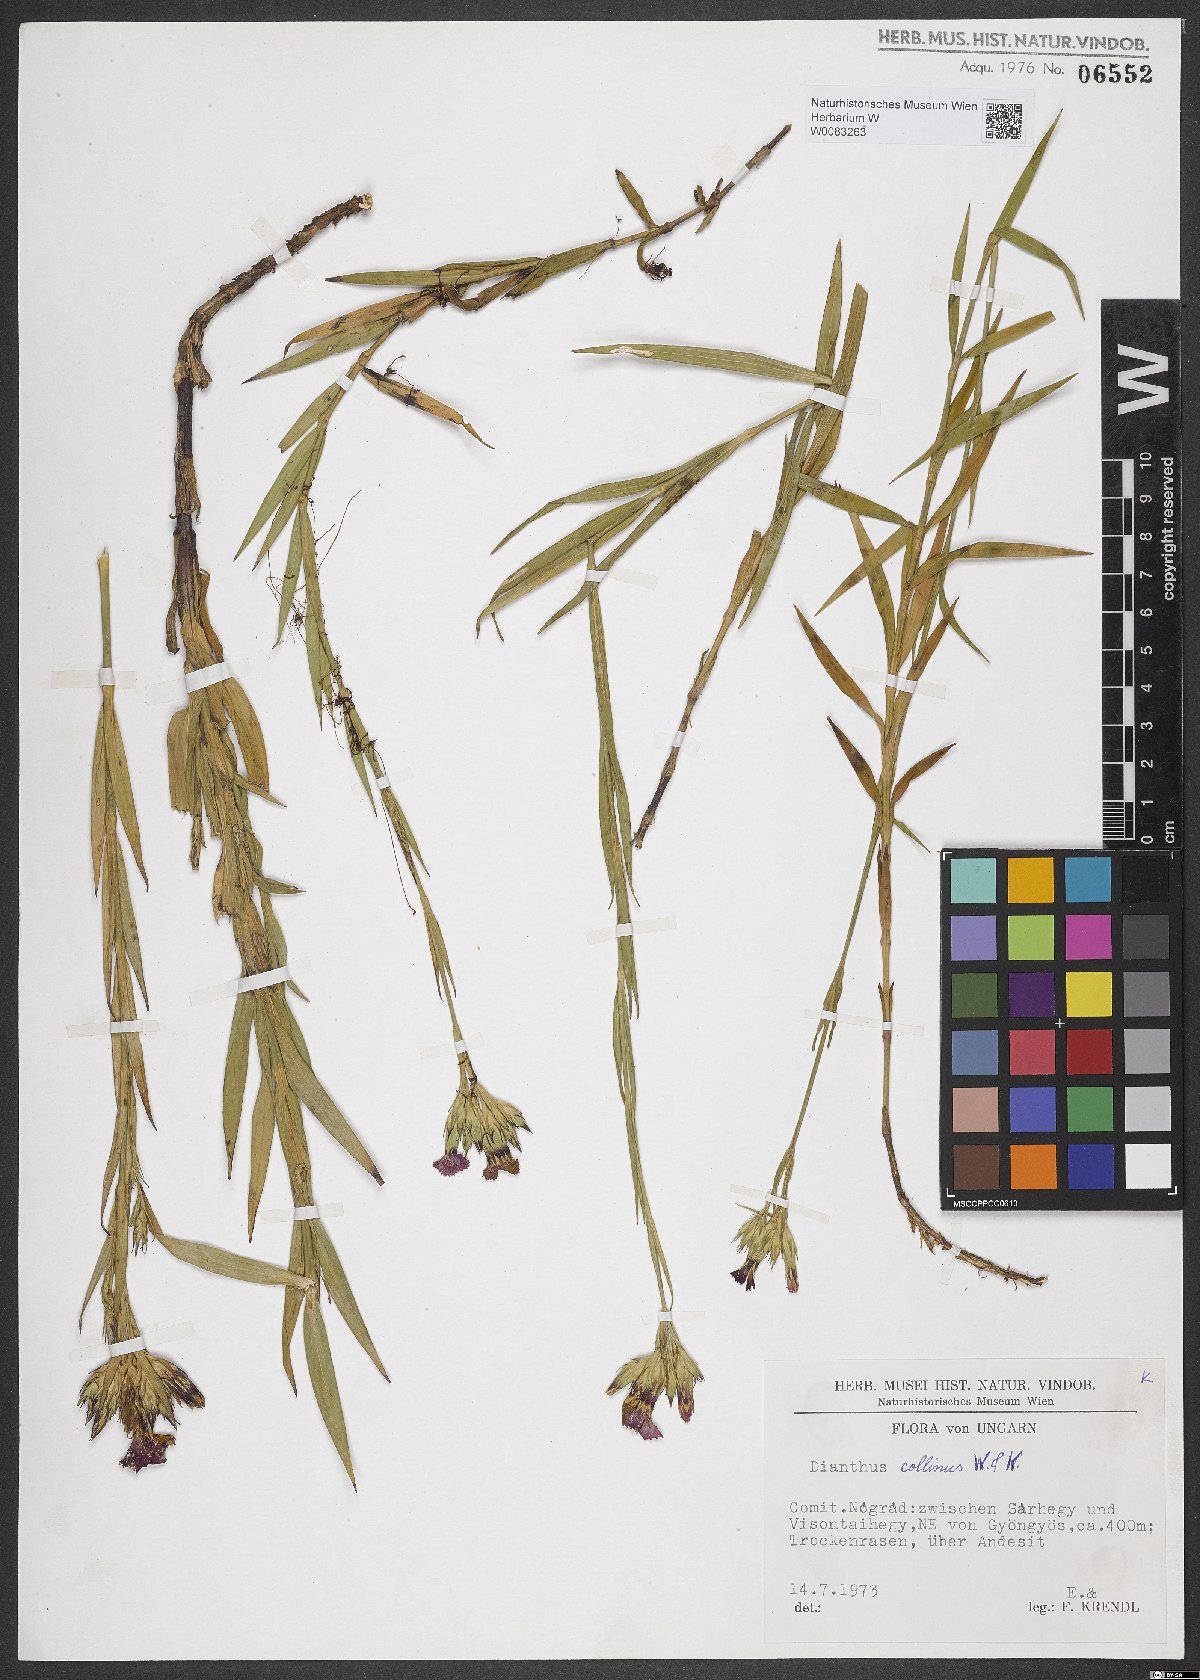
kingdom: Plantae
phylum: Tracheophyta
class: Magnoliopsida
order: Caryophyllales
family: Caryophyllaceae
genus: Dianthus
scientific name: Dianthus collinus
